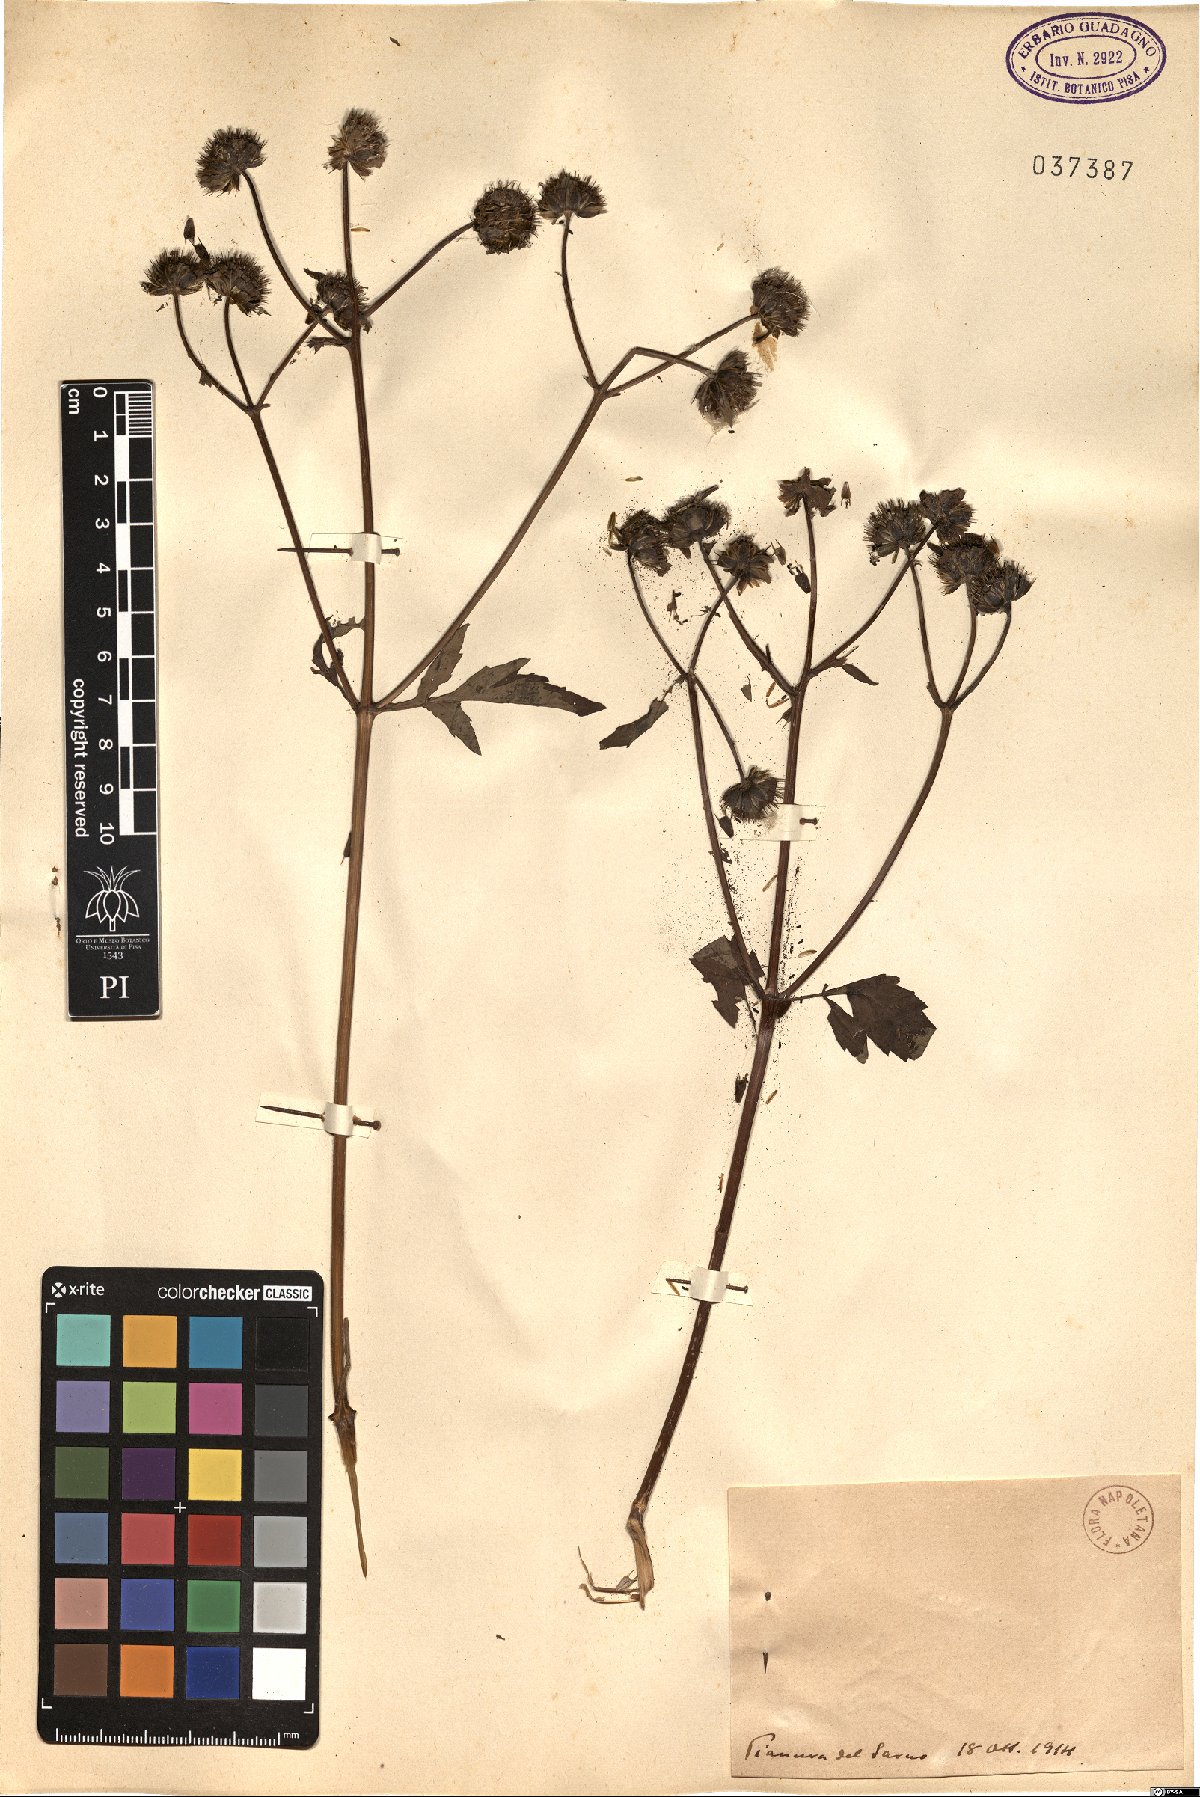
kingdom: Plantae
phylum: Tracheophyta
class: Magnoliopsida
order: Asterales
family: Asteraceae
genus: Bidens
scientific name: Bidens
